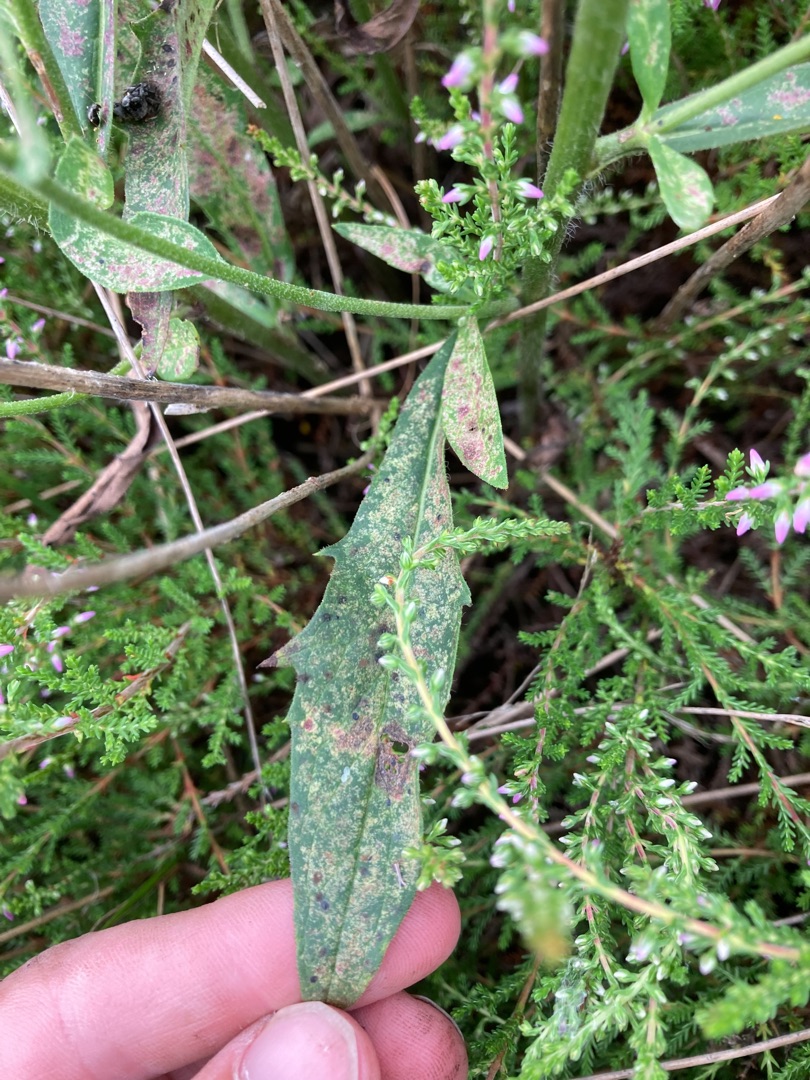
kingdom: Plantae
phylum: Tracheophyta
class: Magnoliopsida
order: Asterales
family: Asteraceae
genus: Hieracium
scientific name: Hieracium
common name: Høgeurt (Hieracium-slægten)
